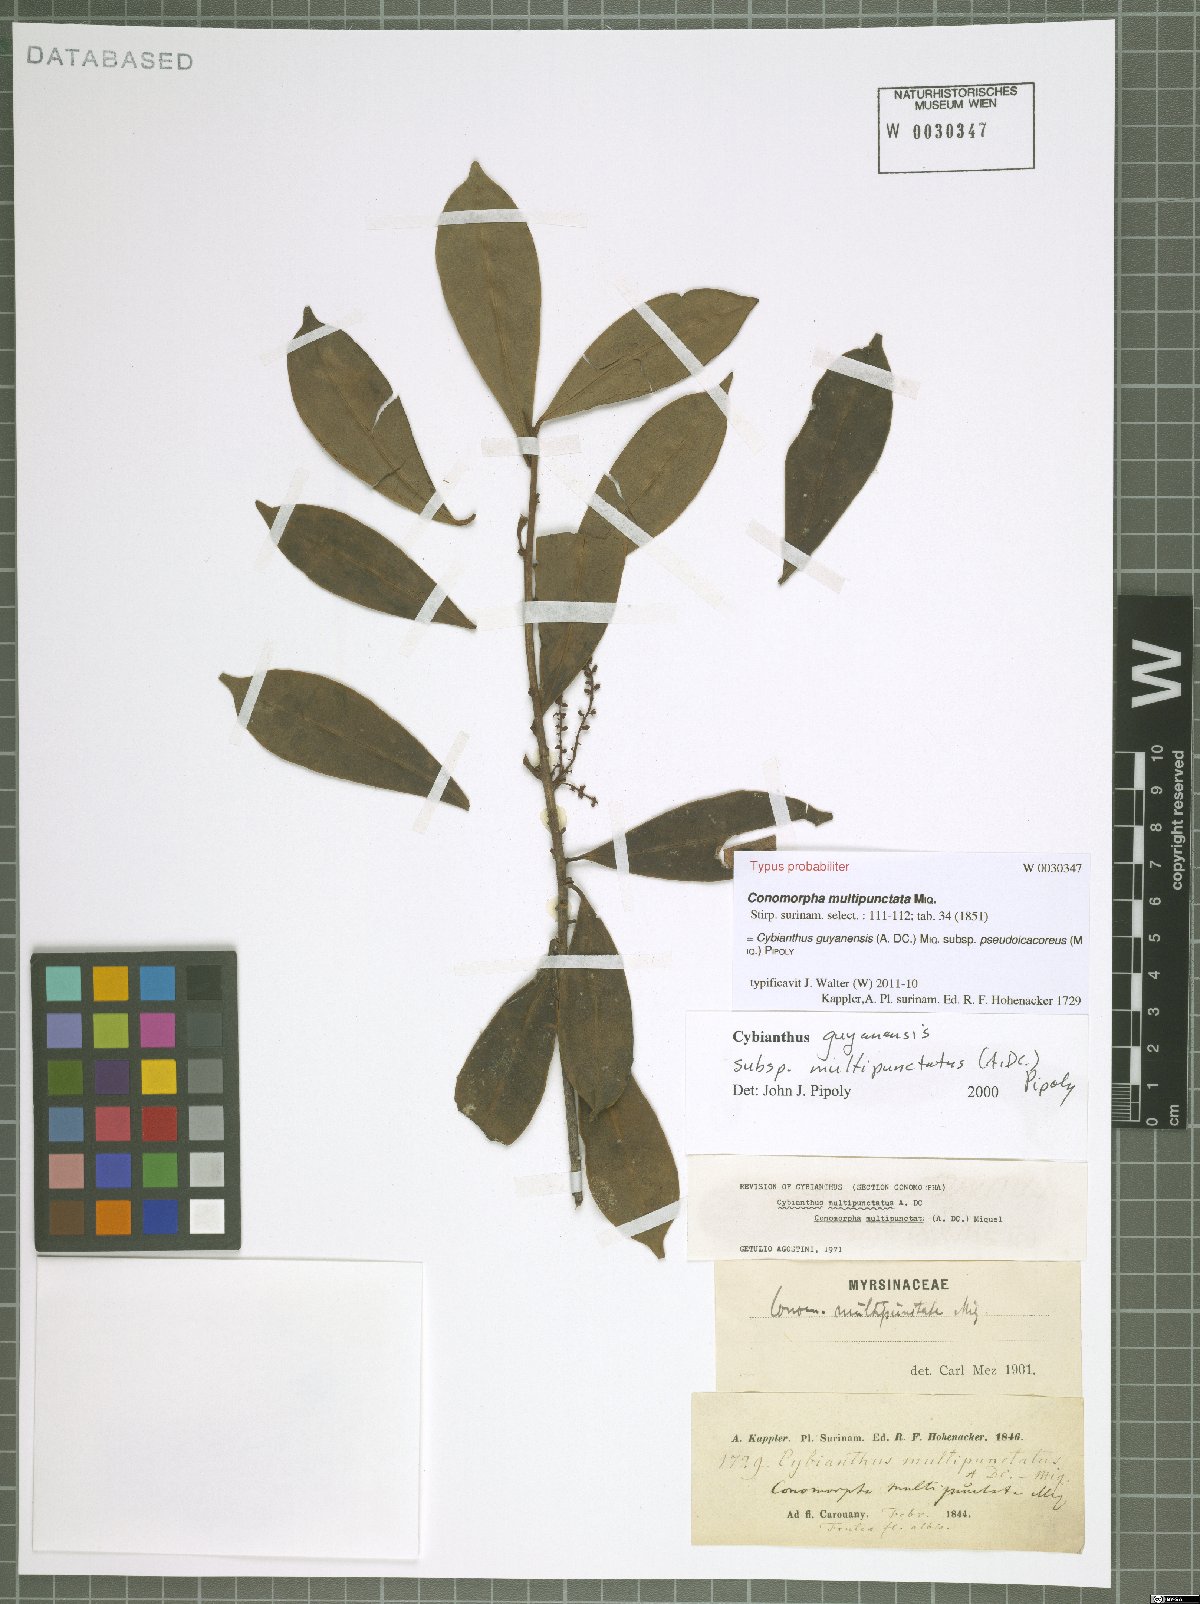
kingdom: Plantae
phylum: Tracheophyta
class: Magnoliopsida
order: Ericales
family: Primulaceae
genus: Cybianthus
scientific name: Cybianthus guyanensis
